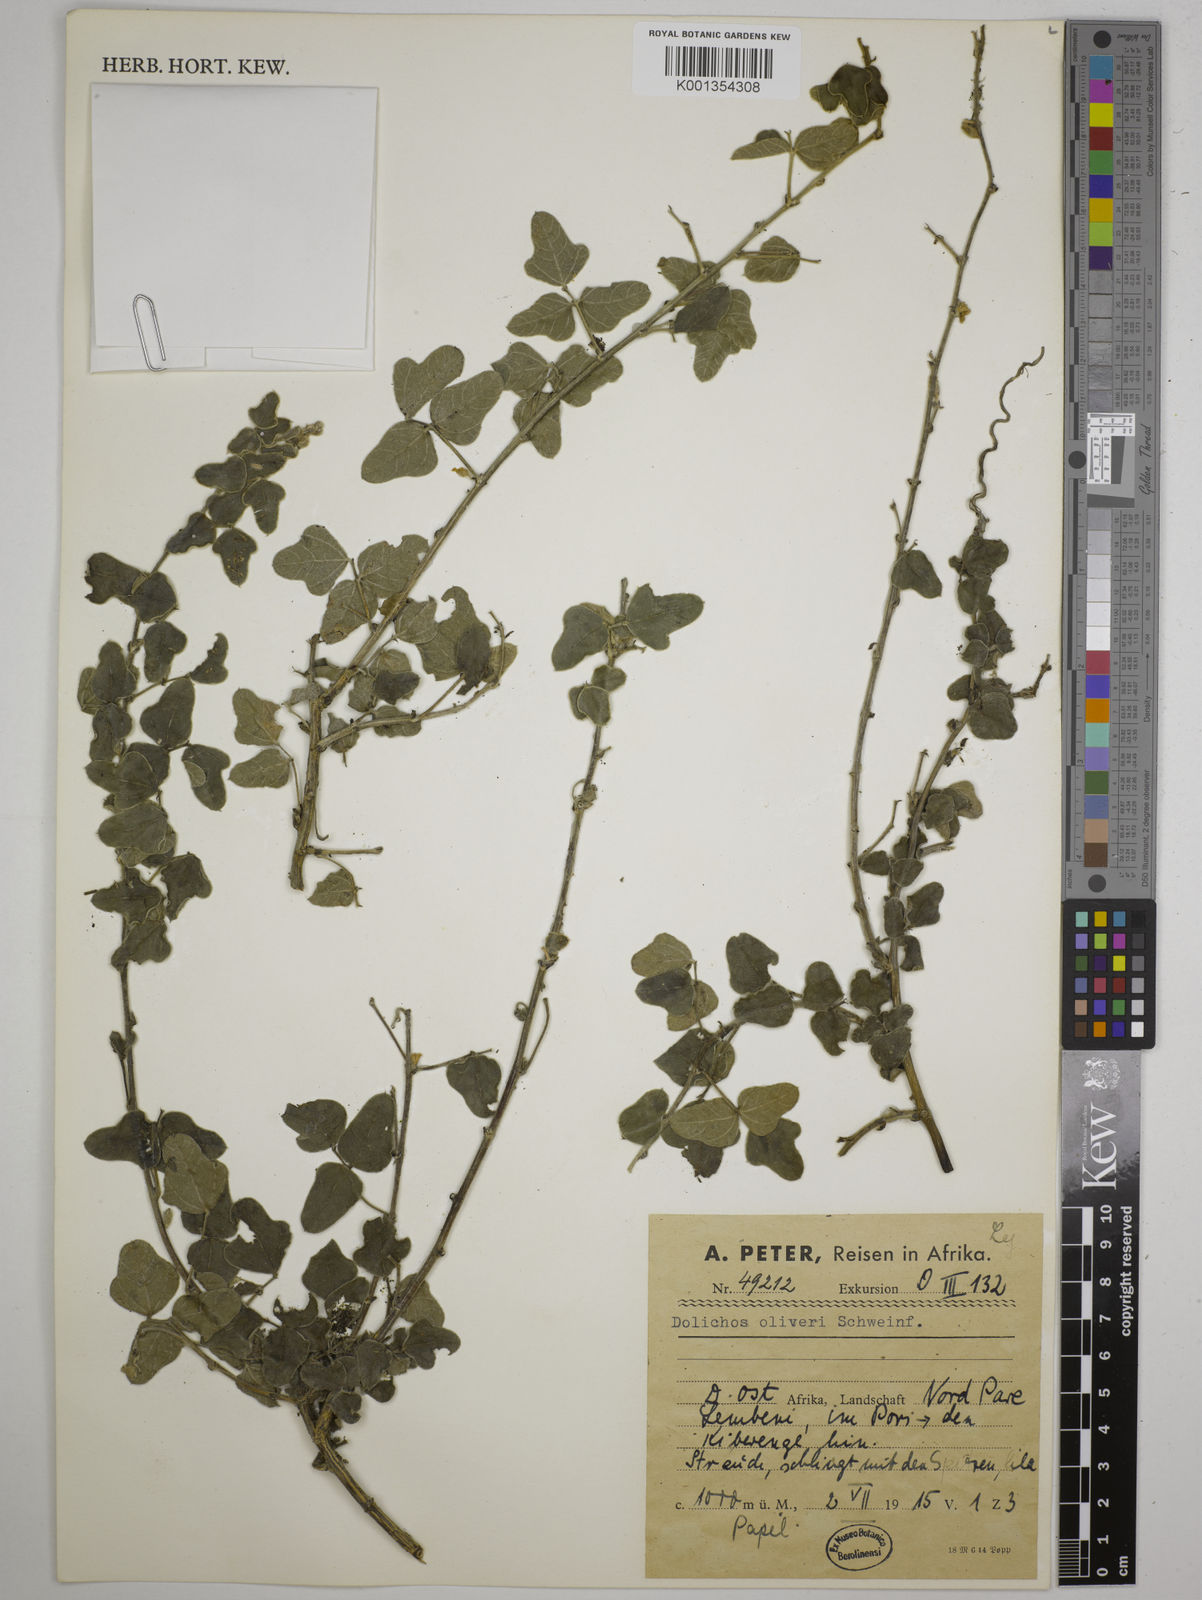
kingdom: Plantae
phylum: Tracheophyta
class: Magnoliopsida
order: Fabales
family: Fabaceae
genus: Dolichos
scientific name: Dolichos oliveri
